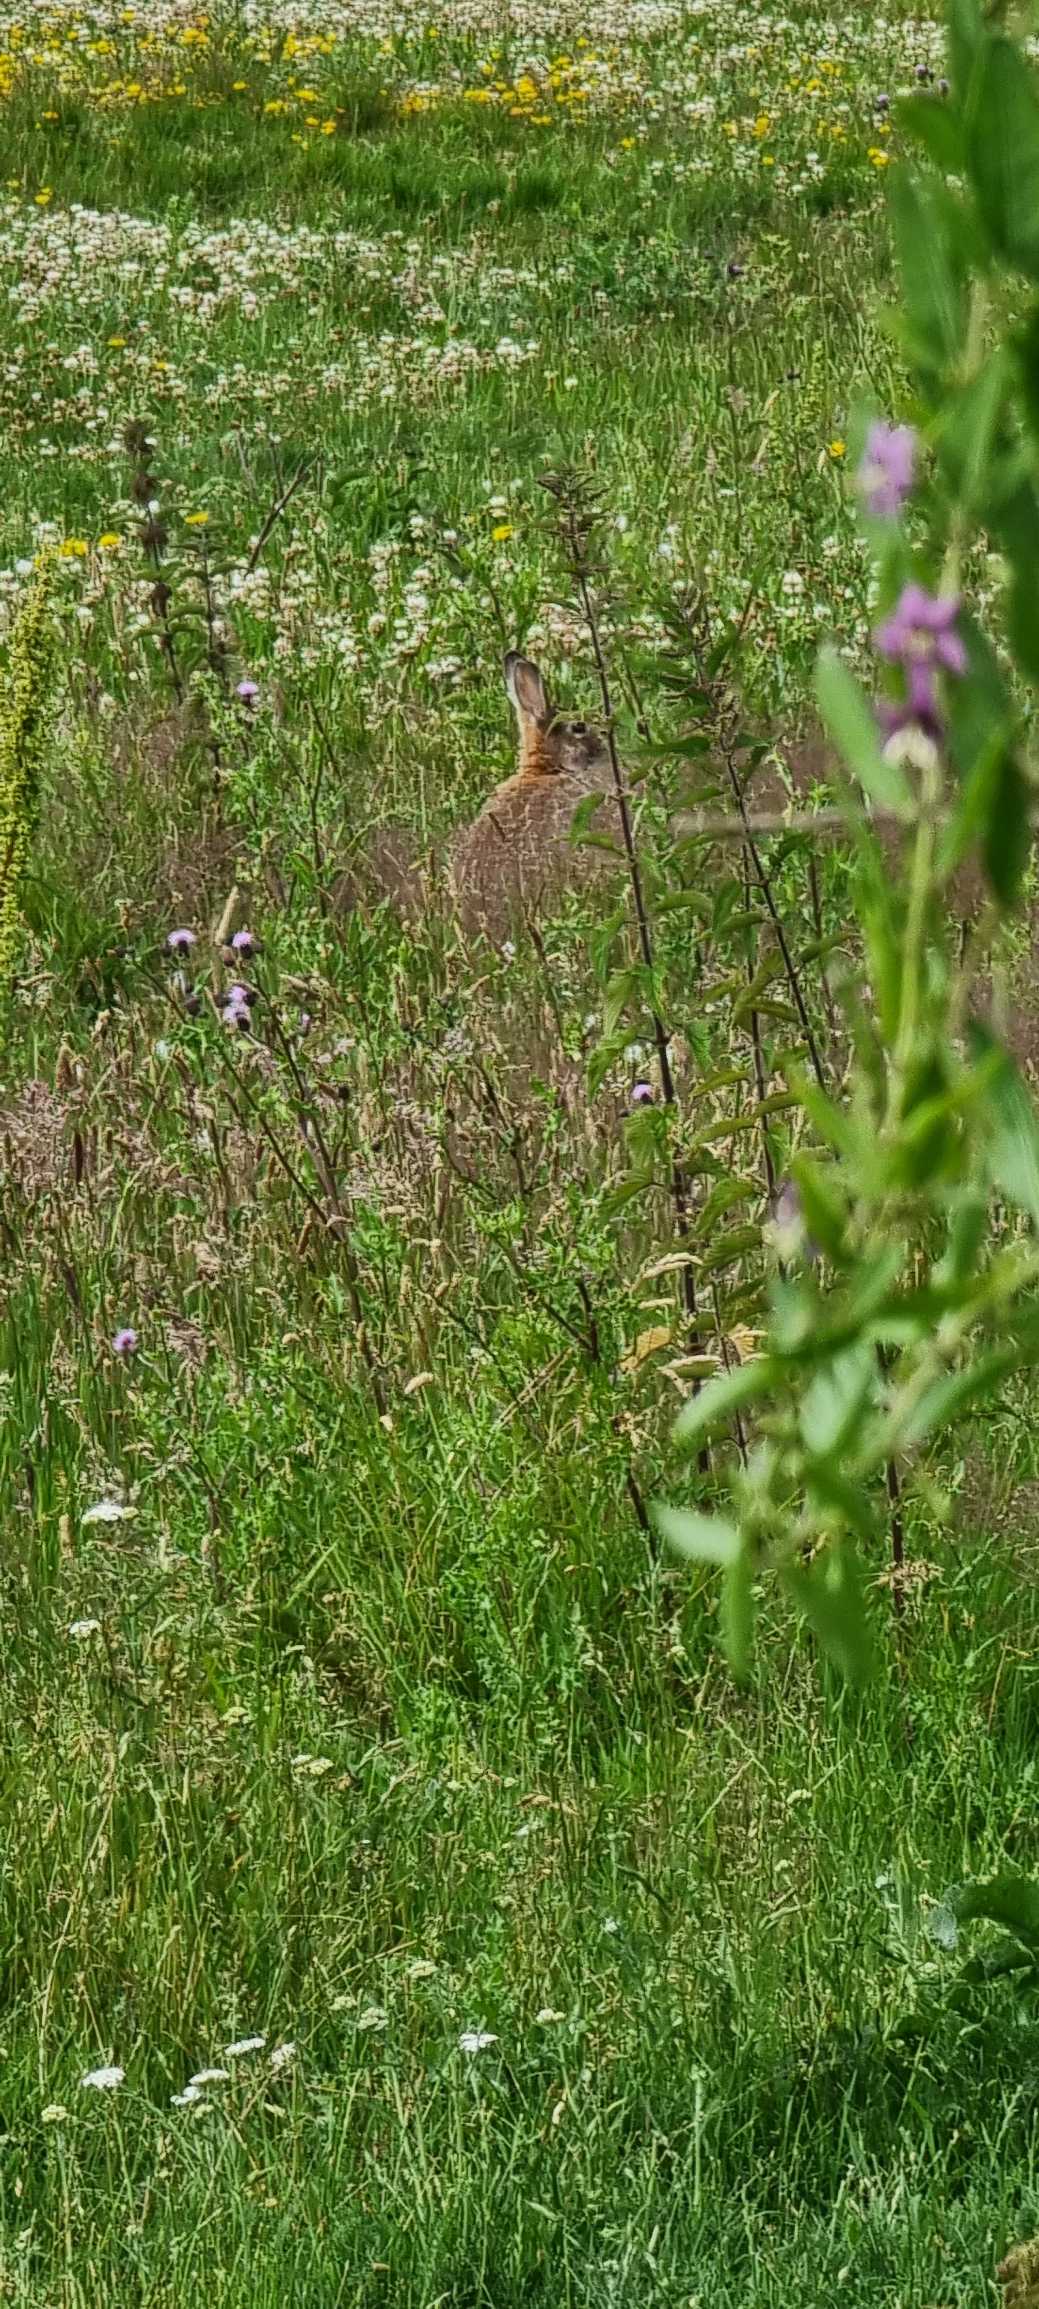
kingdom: Animalia
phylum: Chordata
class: Mammalia
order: Lagomorpha
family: Leporidae
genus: Oryctolagus
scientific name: Oryctolagus cuniculus
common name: Vildkanin
